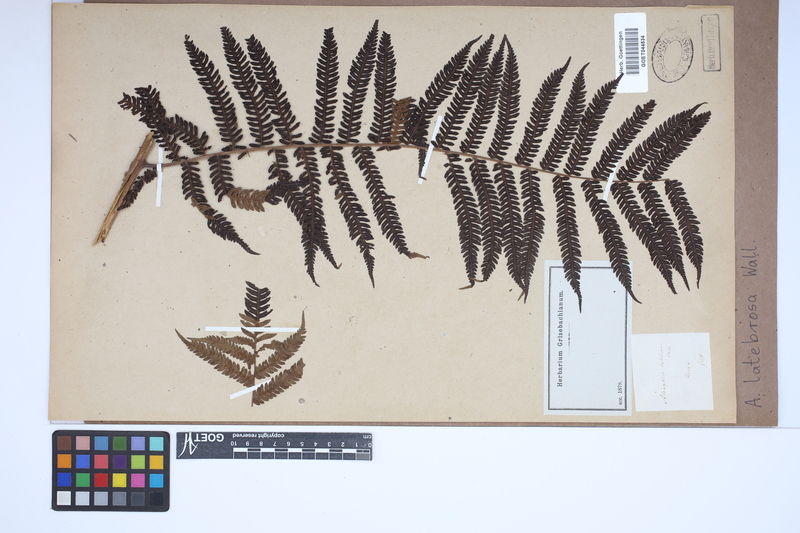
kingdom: Plantae
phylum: Tracheophyta
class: Polypodiopsida
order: Cyatheales
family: Cyatheaceae
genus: Alsophila
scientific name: Alsophila nilgirensis
